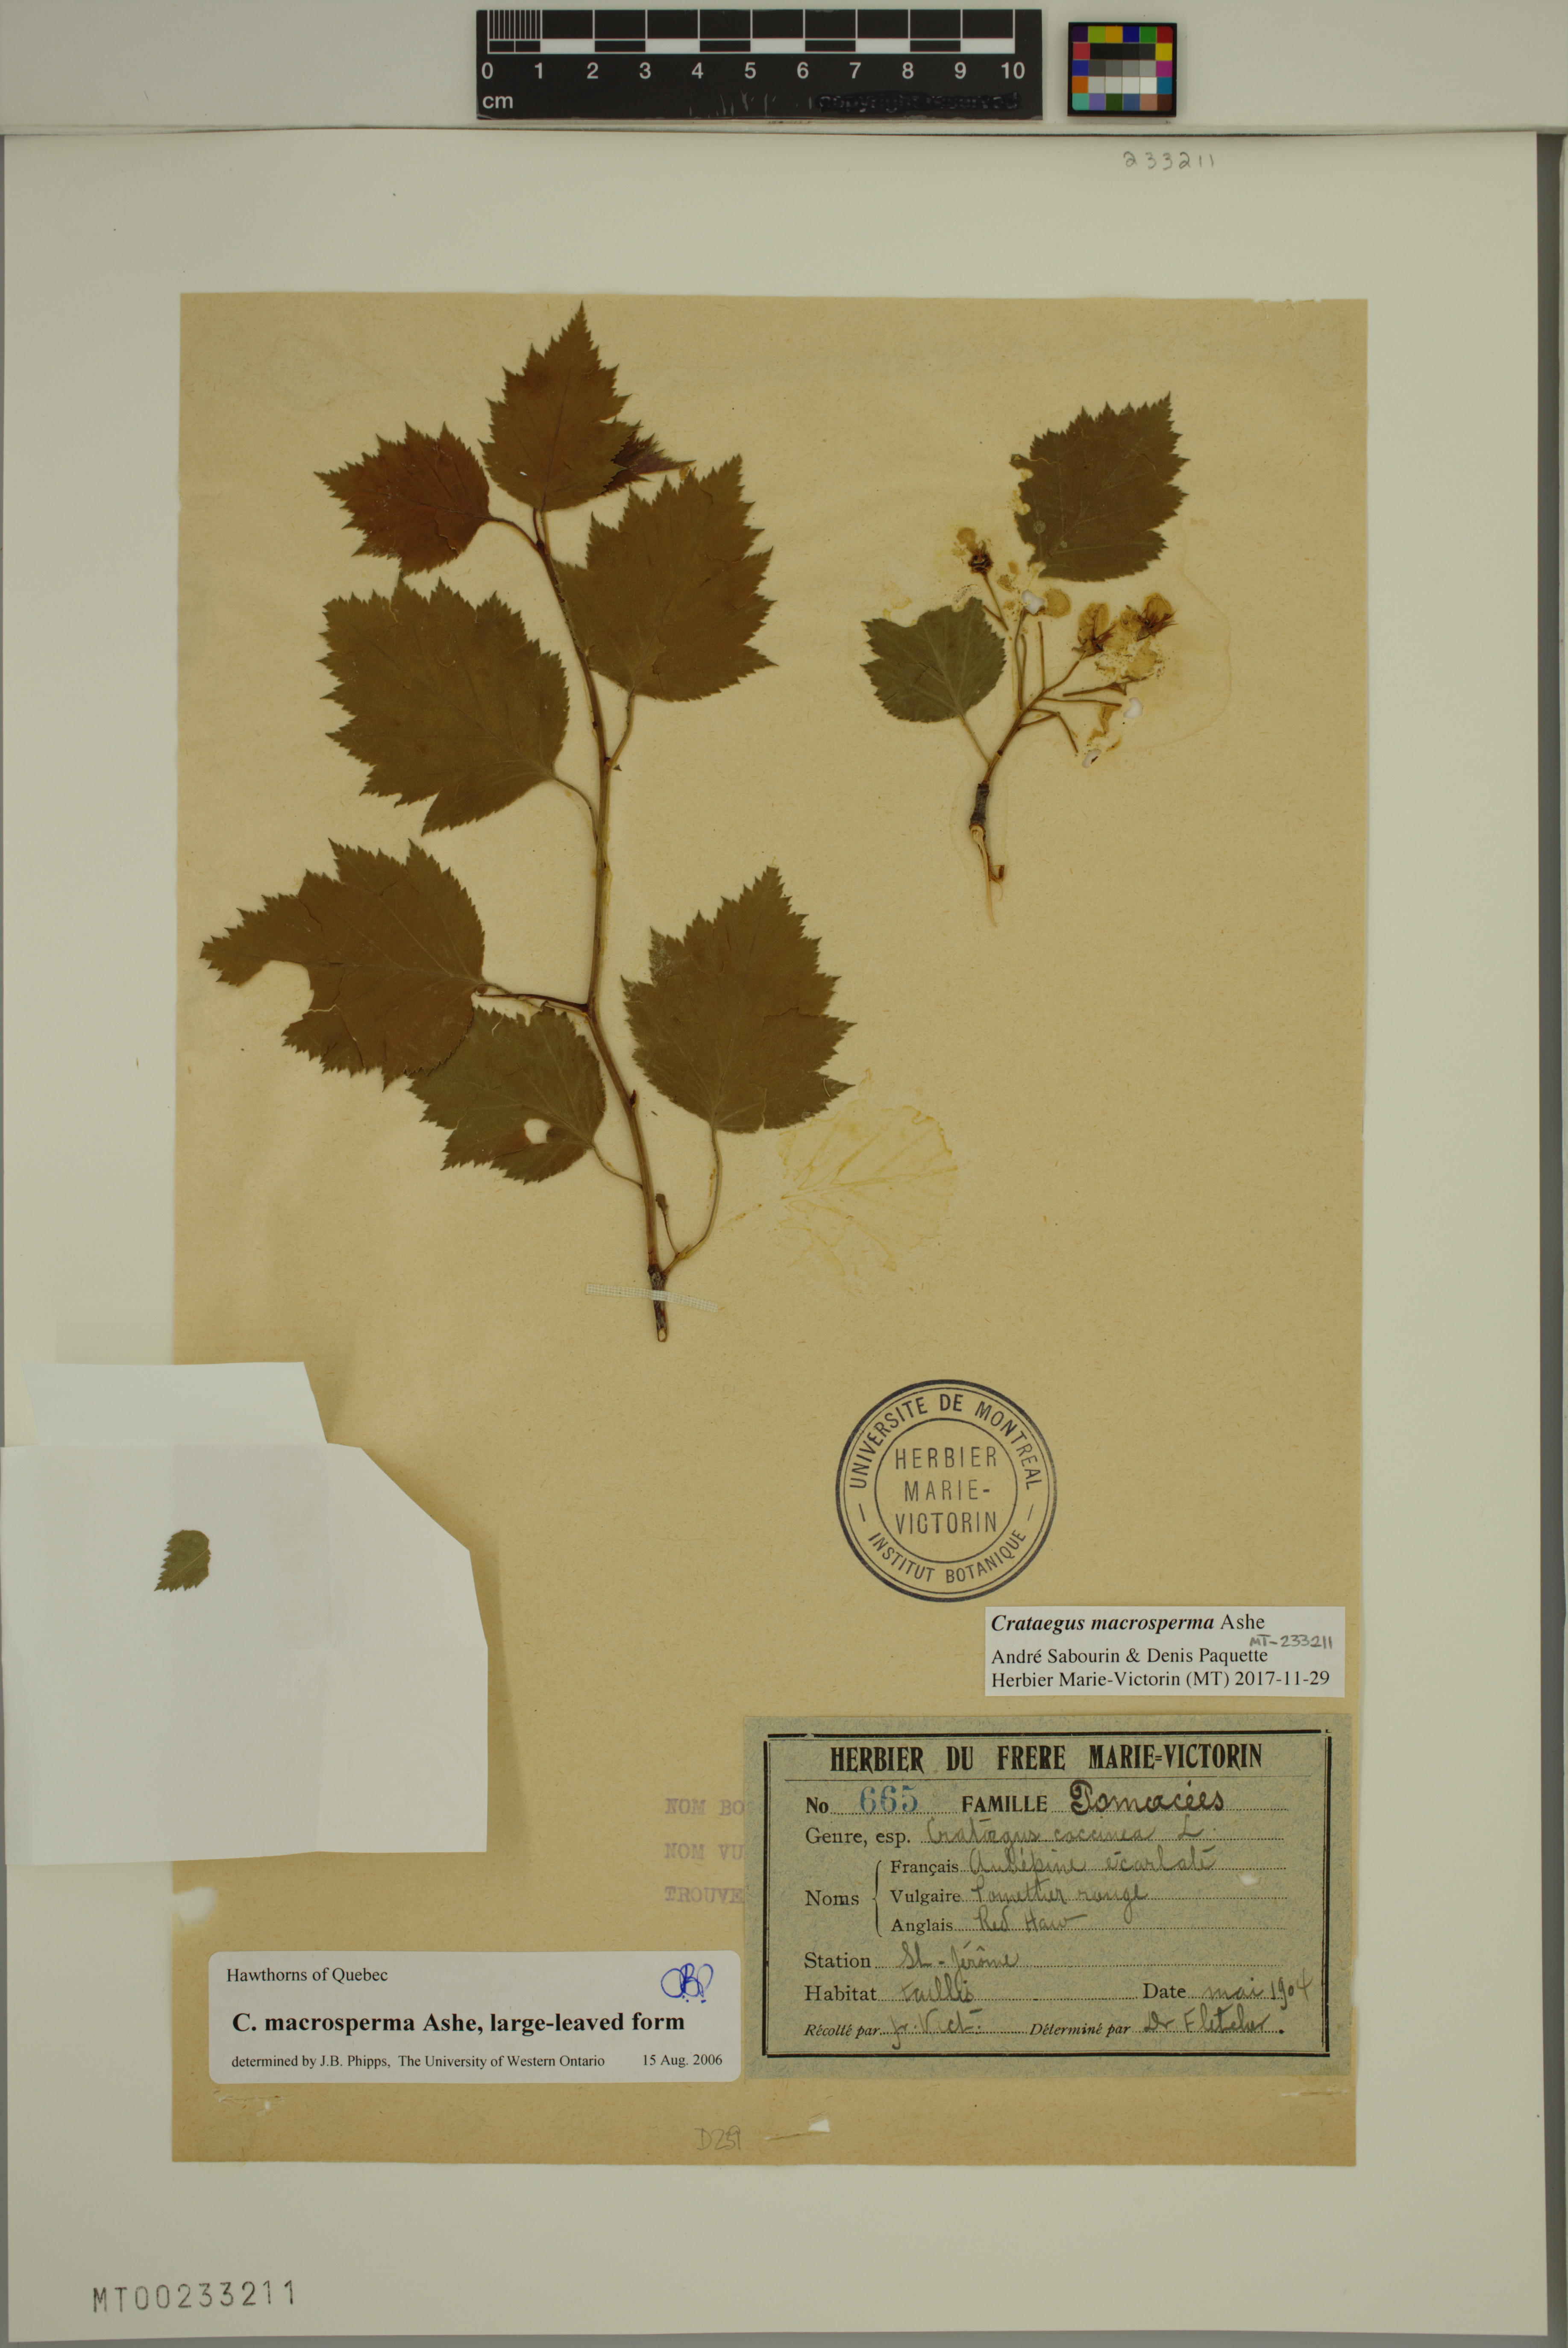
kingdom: Plantae
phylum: Tracheophyta
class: Magnoliopsida
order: Rosales
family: Rosaceae
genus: Crataegus
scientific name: Crataegus flabellata
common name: Bosc's hawthorn
